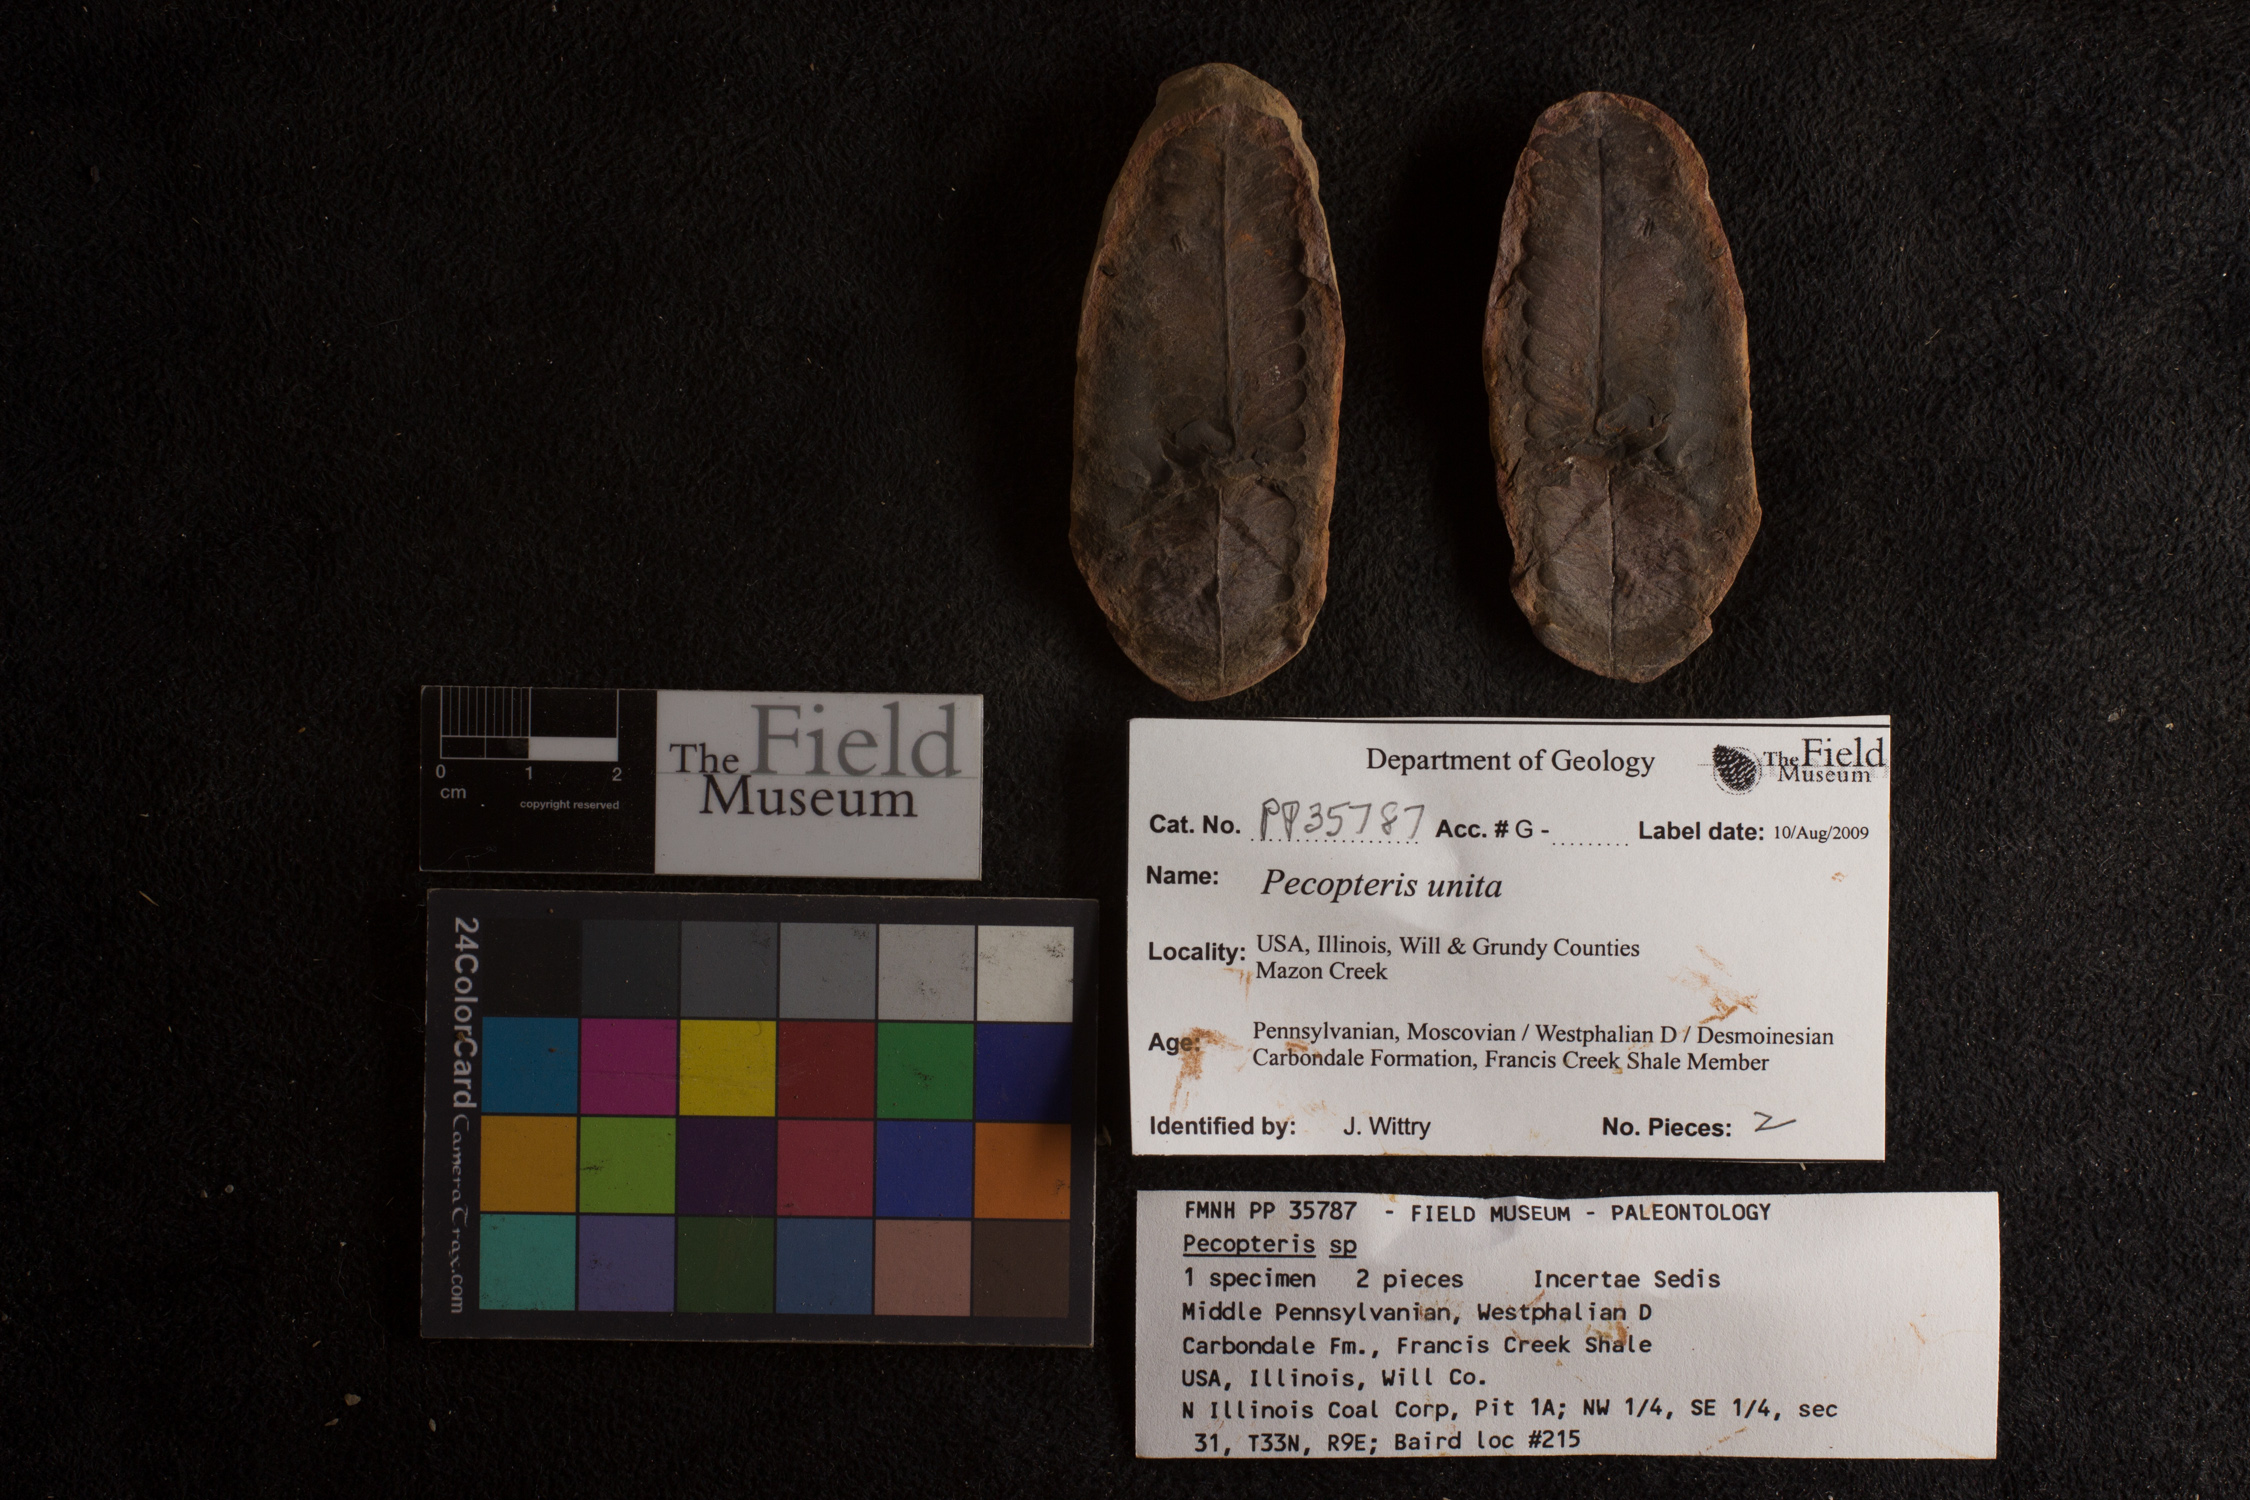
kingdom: Plantae
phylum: Tracheophyta
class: Polypodiopsida
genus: Diplazites
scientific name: Diplazites
